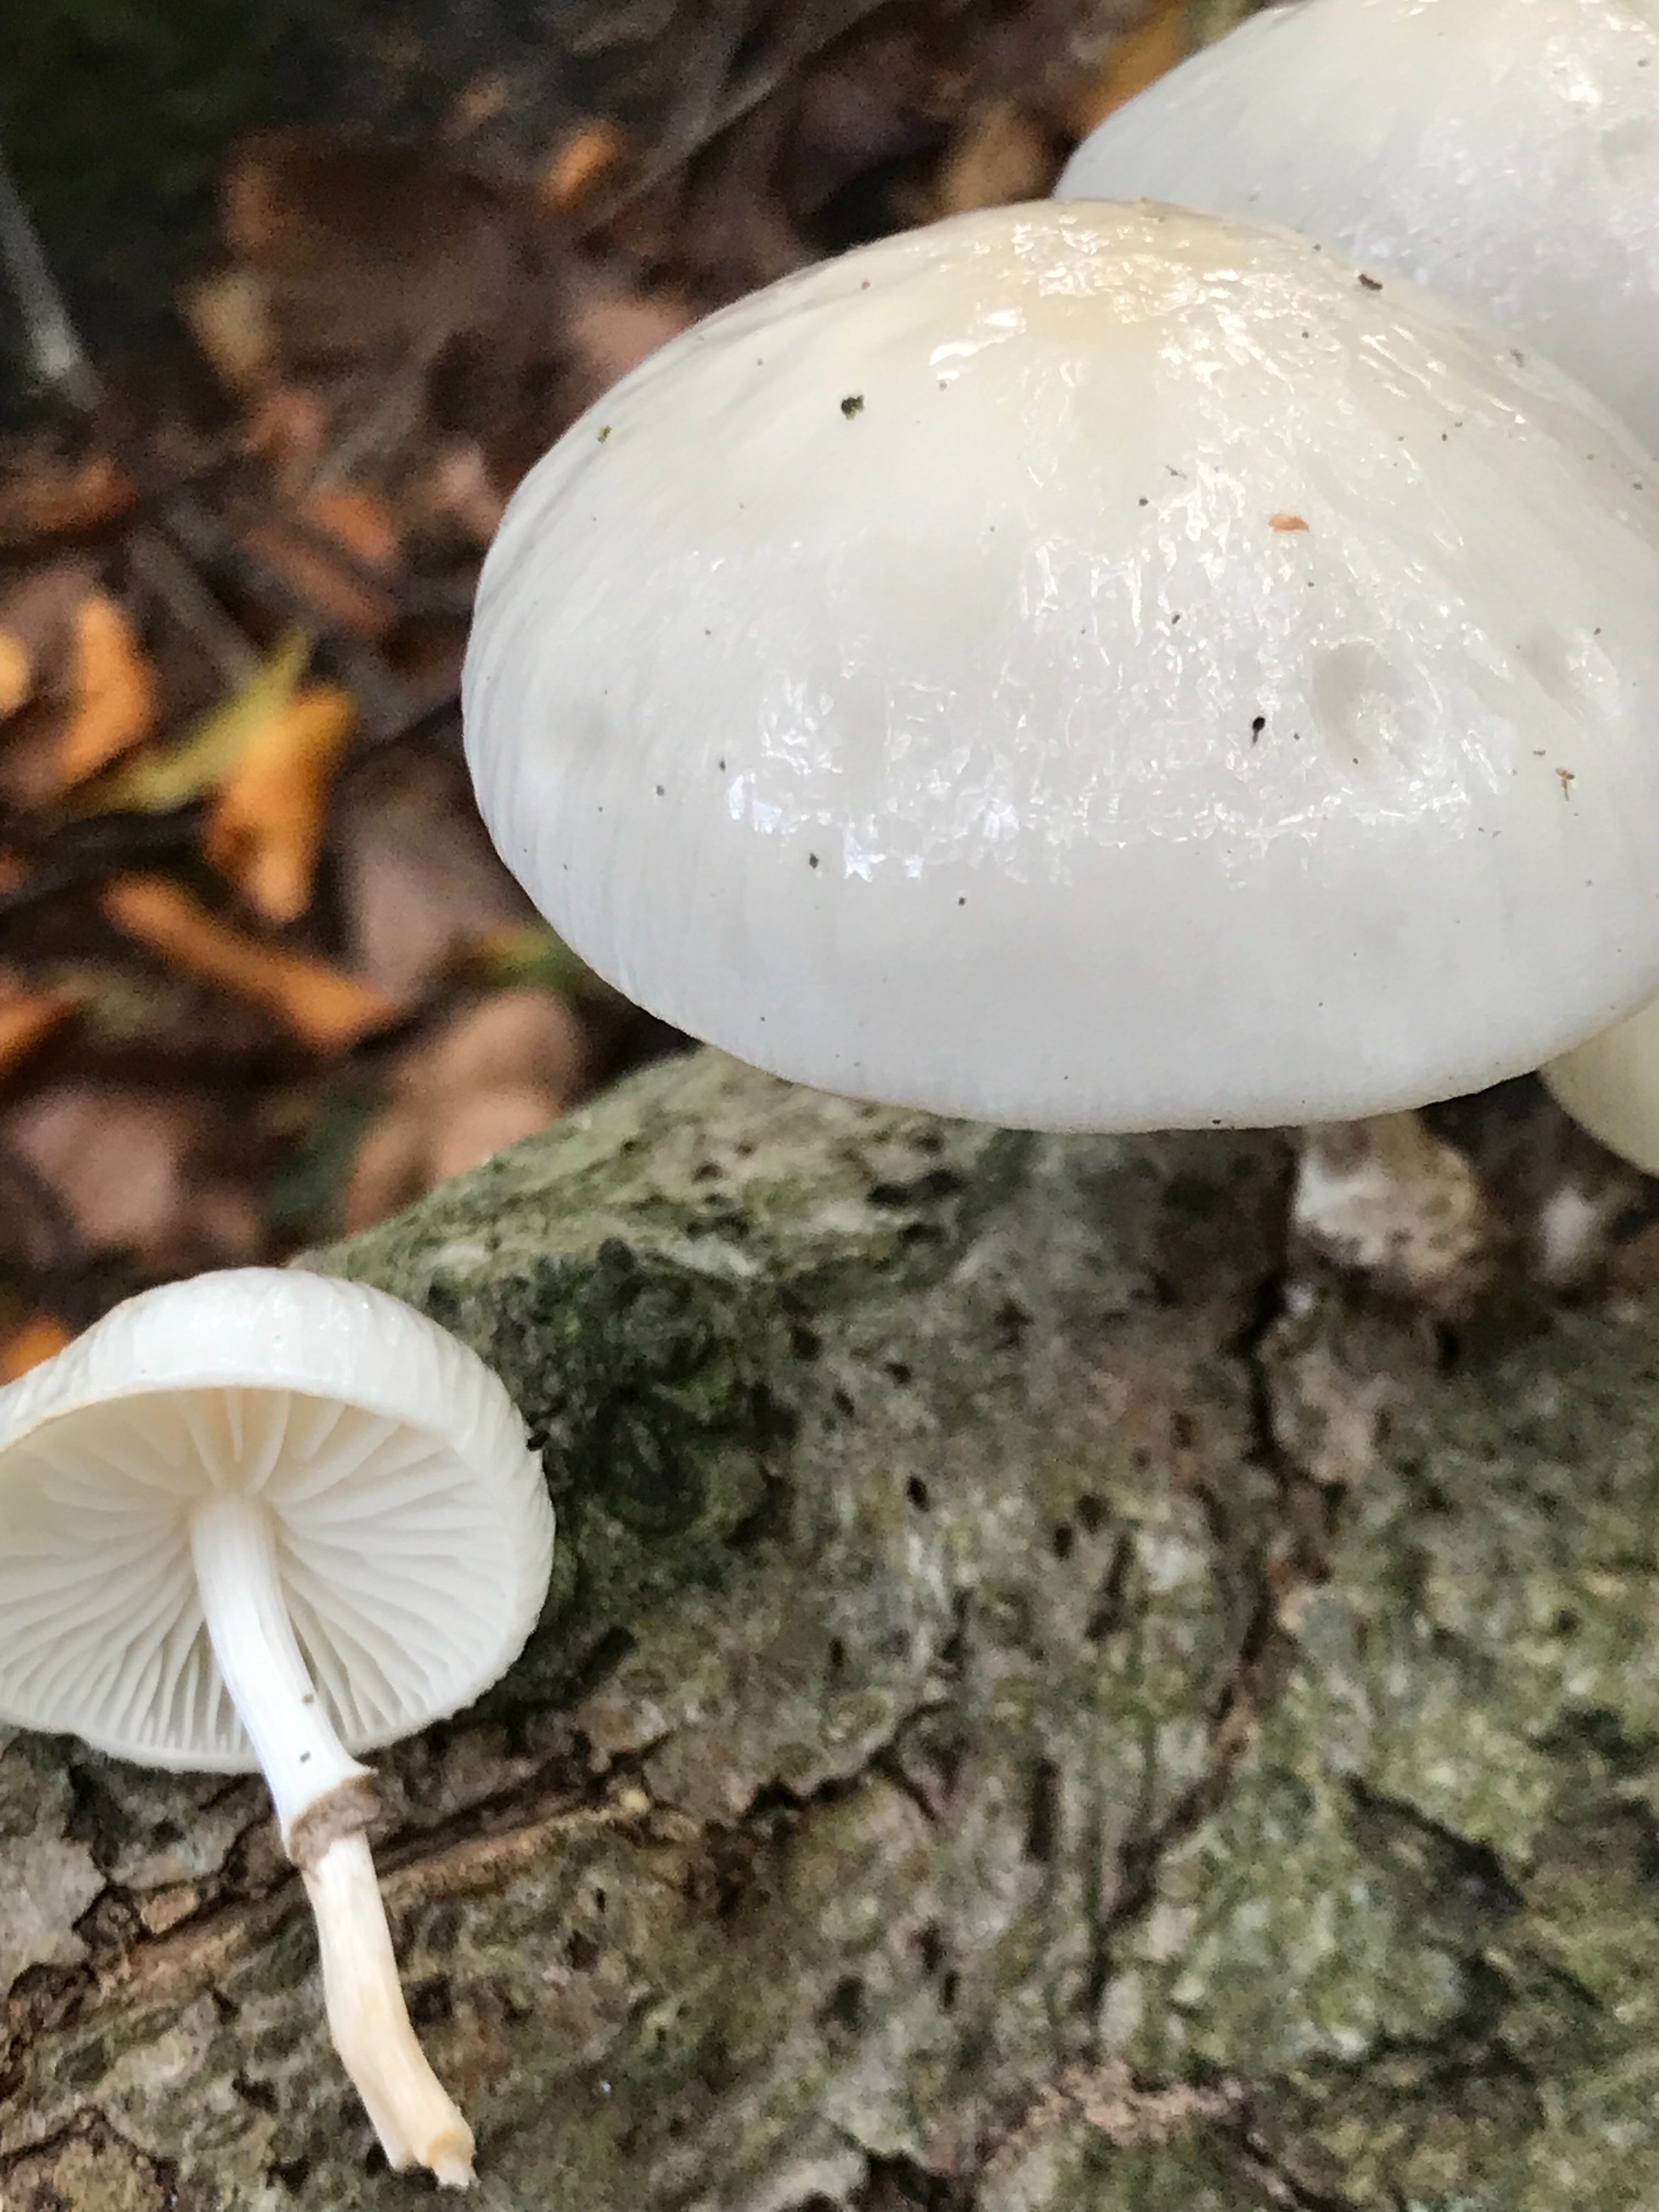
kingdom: Fungi
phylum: Basidiomycota
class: Agaricomycetes
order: Agaricales
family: Physalacriaceae
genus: Mucidula
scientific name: Mucidula mucida
